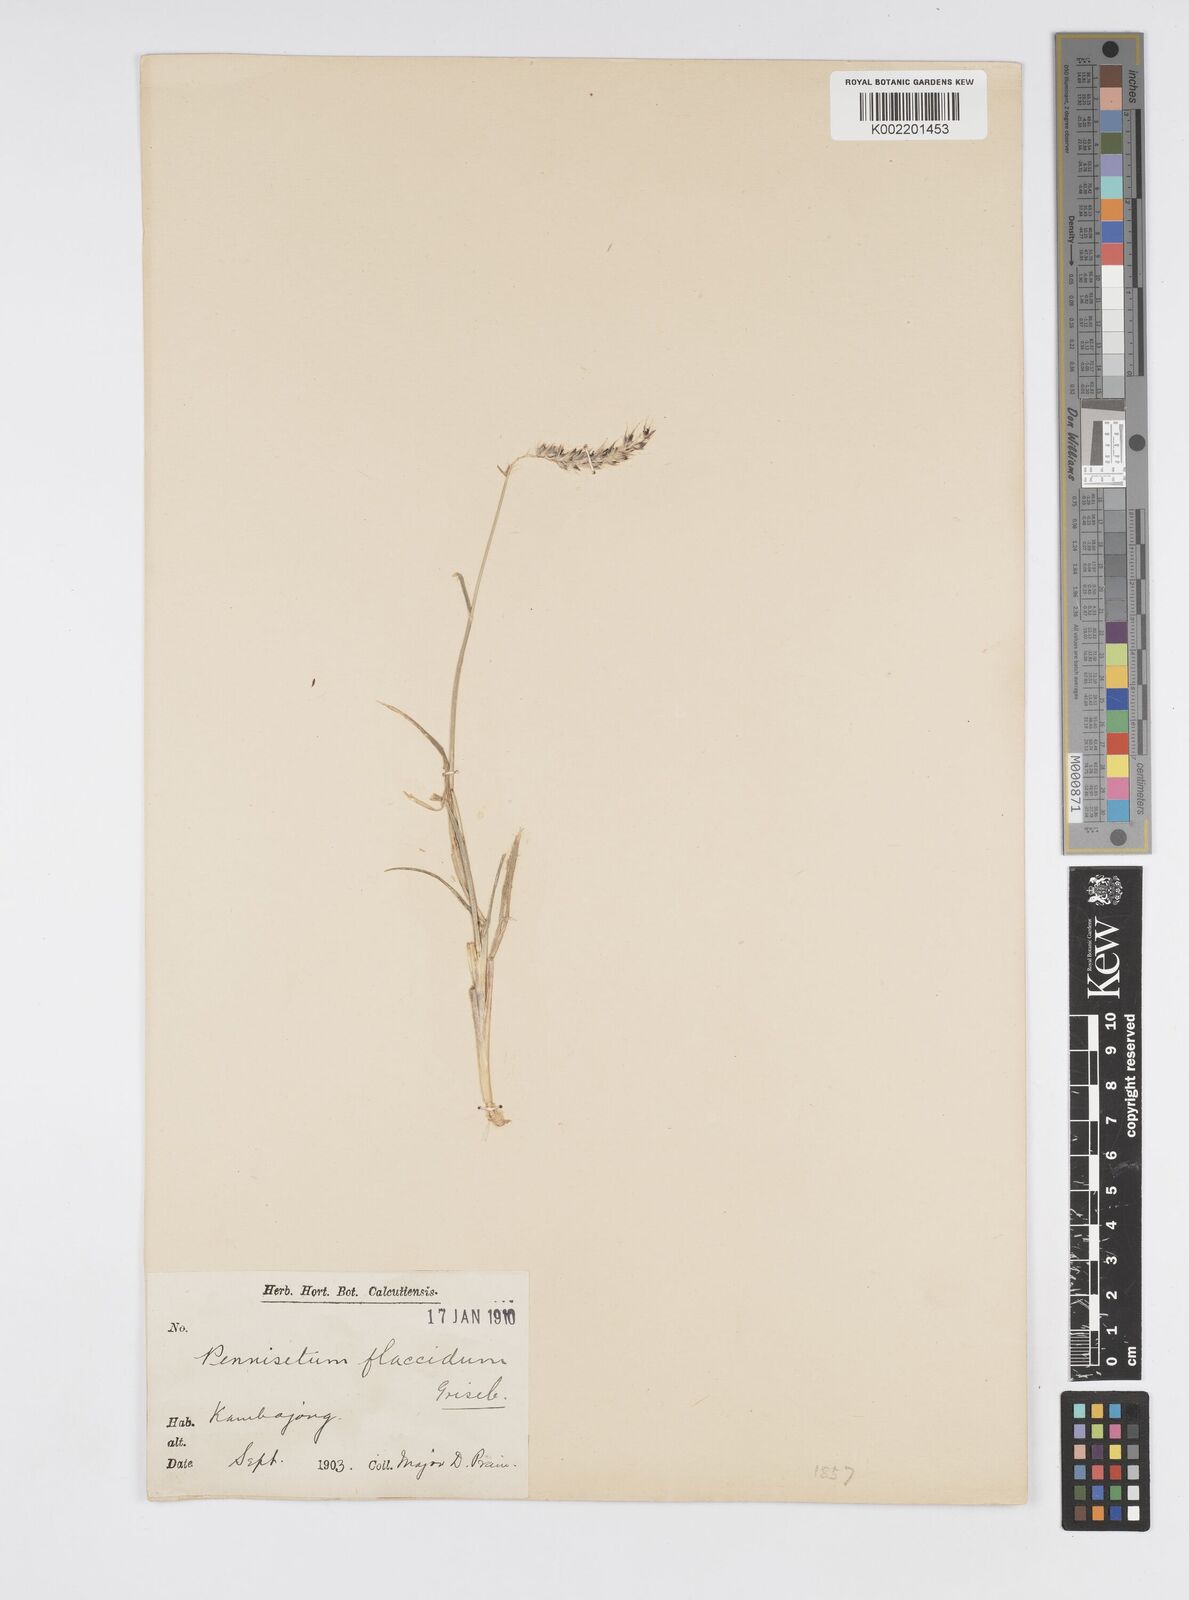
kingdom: Plantae
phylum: Tracheophyta
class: Liliopsida
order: Poales
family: Poaceae
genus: Cenchrus
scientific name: Cenchrus flaccidus
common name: Flaccid grass
